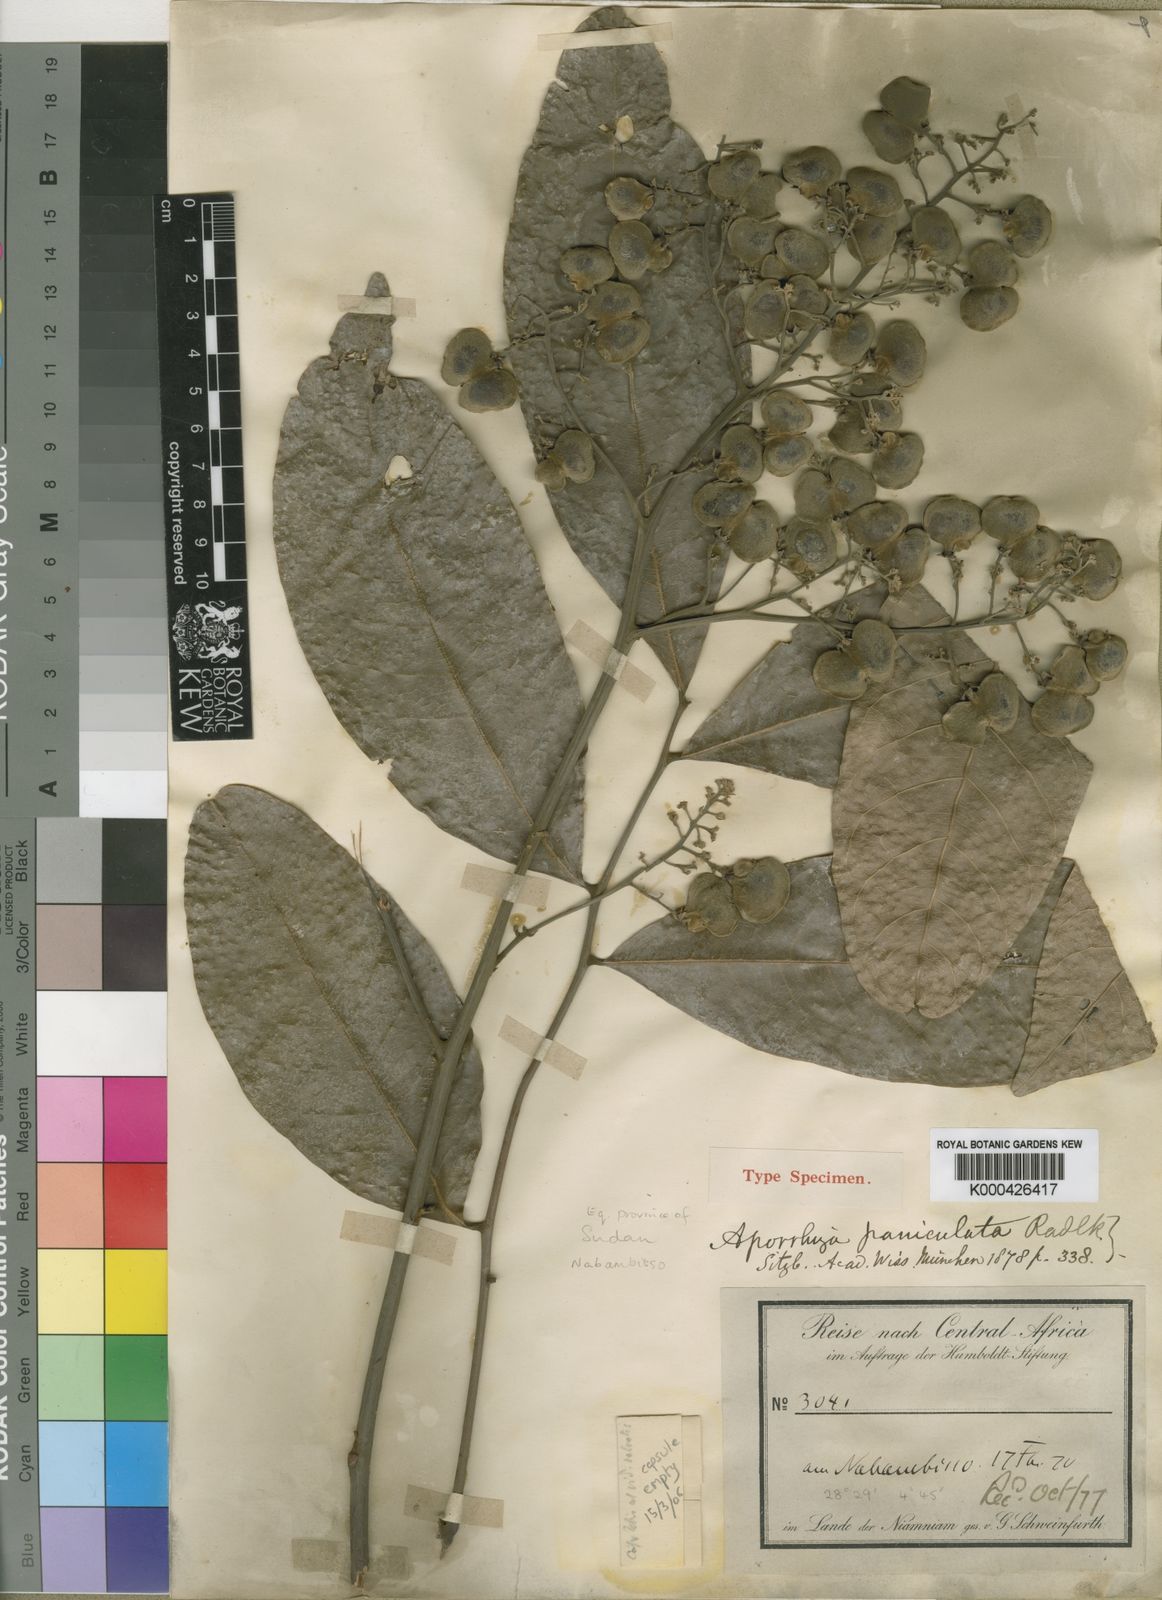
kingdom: Plantae
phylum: Tracheophyta
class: Magnoliopsida
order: Sapindales
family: Sapindaceae
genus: Aporrhiza
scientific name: Aporrhiza paniculata
